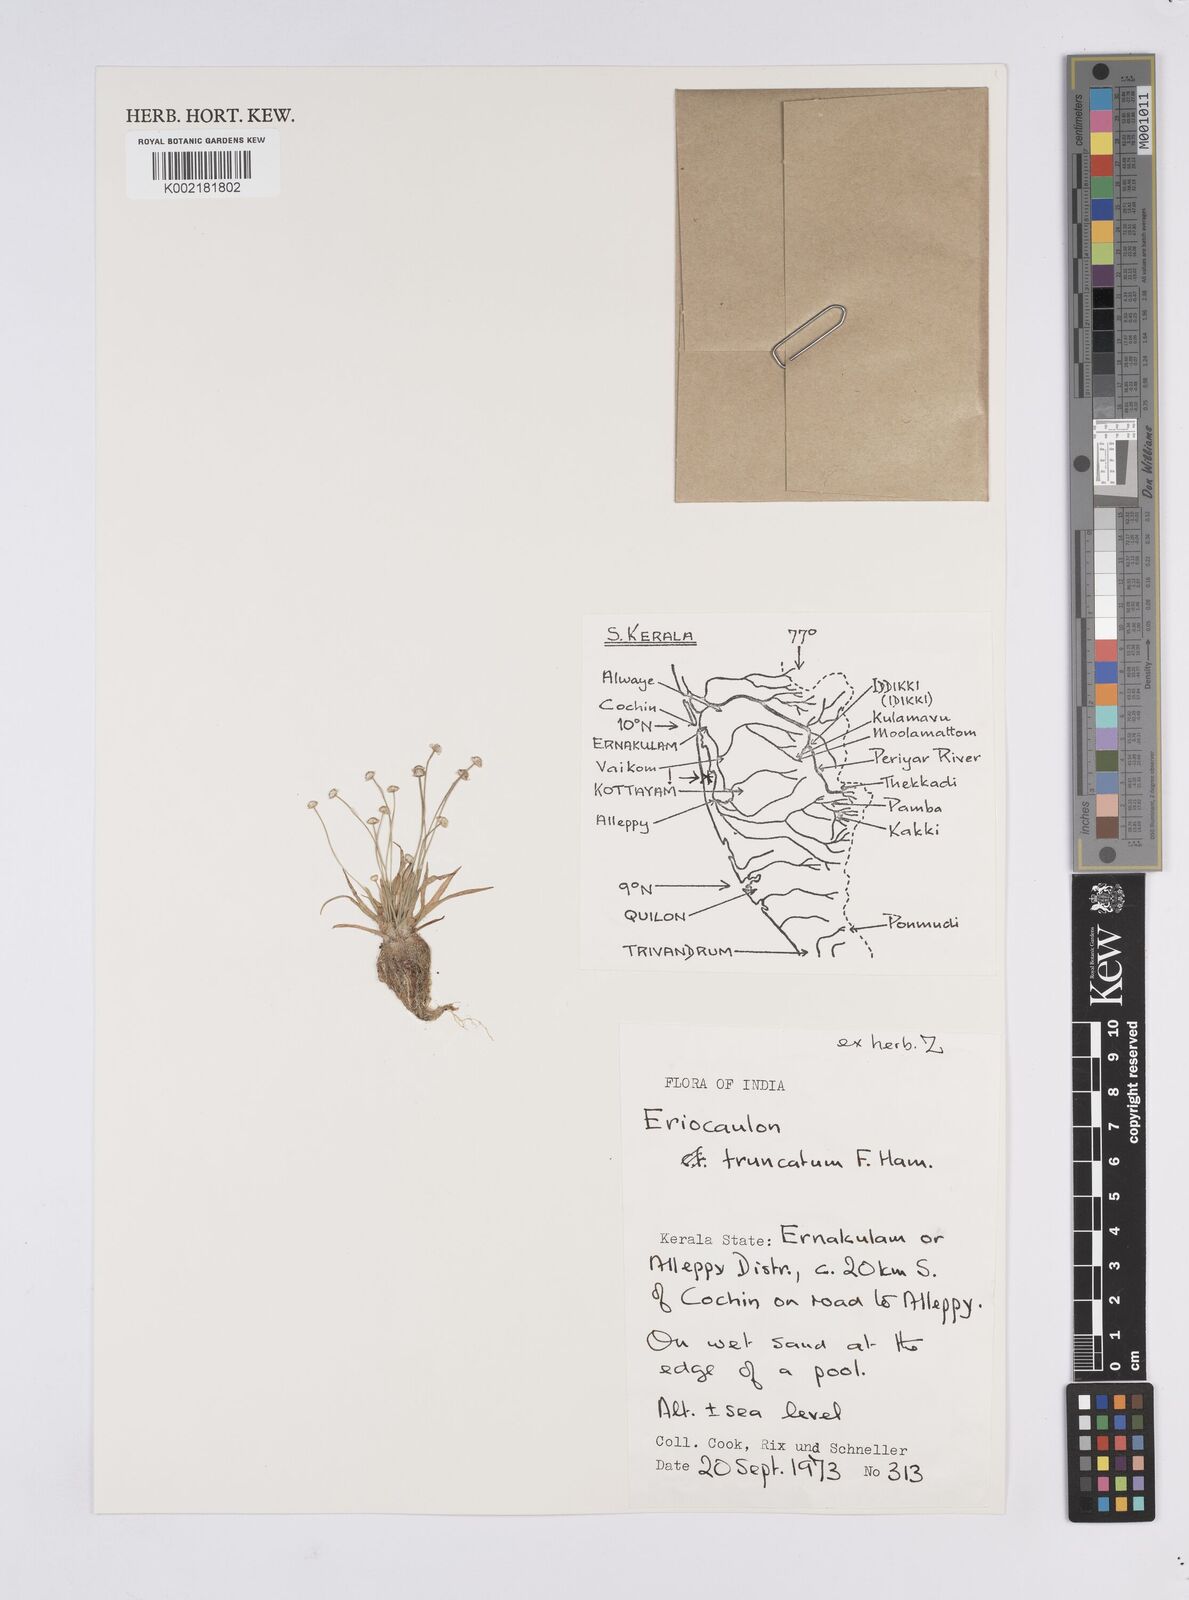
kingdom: Plantae
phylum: Tracheophyta
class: Liliopsida
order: Poales
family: Eriocaulaceae
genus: Eriocaulon
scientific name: Eriocaulon truncatum
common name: Short pipe-wort
